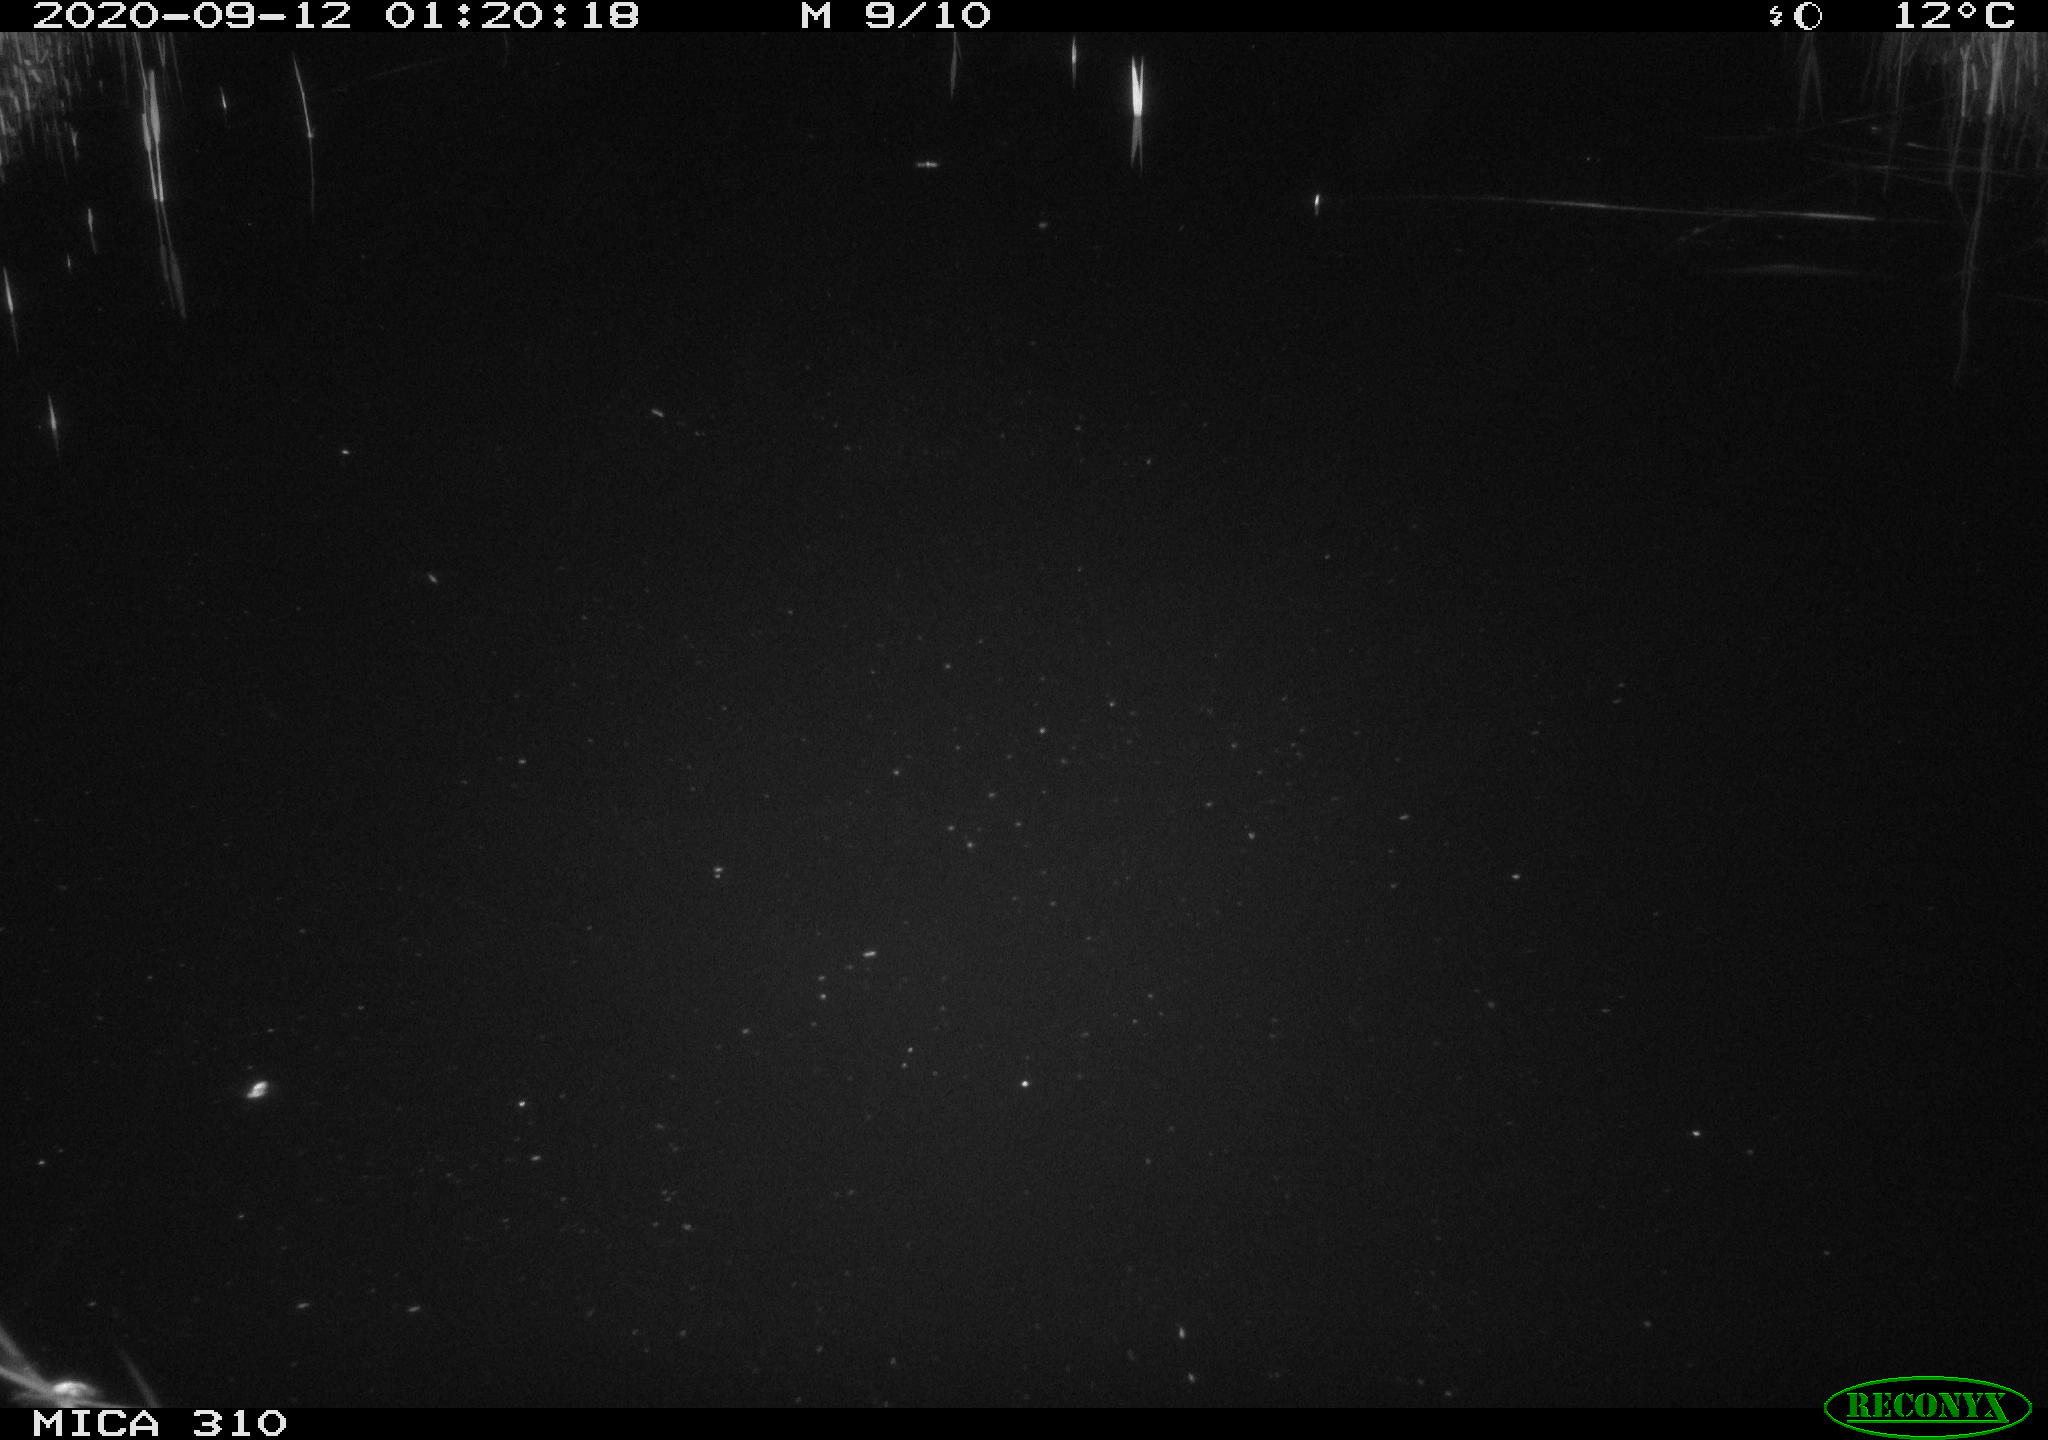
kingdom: Animalia
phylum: Chordata
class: Aves
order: Anseriformes
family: Anatidae
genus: Anas
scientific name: Anas platyrhynchos
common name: Mallard
